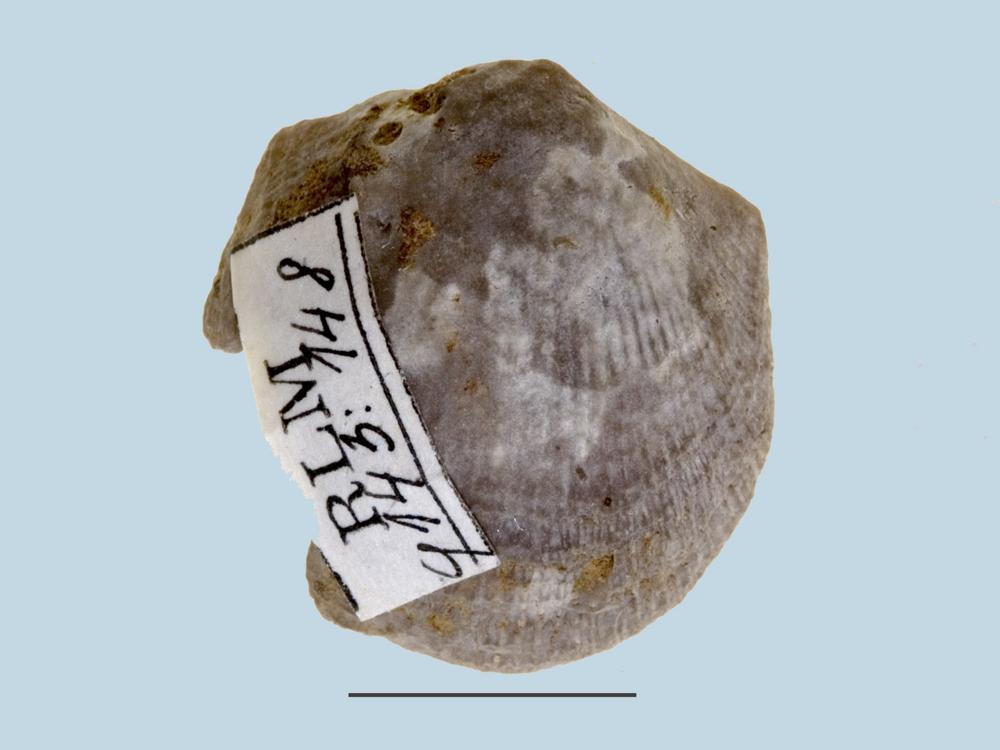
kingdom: Animalia
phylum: Brachiopoda
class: Rhynchonellata
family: Clitambonitidae
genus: Clitambonites
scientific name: Clitambonites maximus
